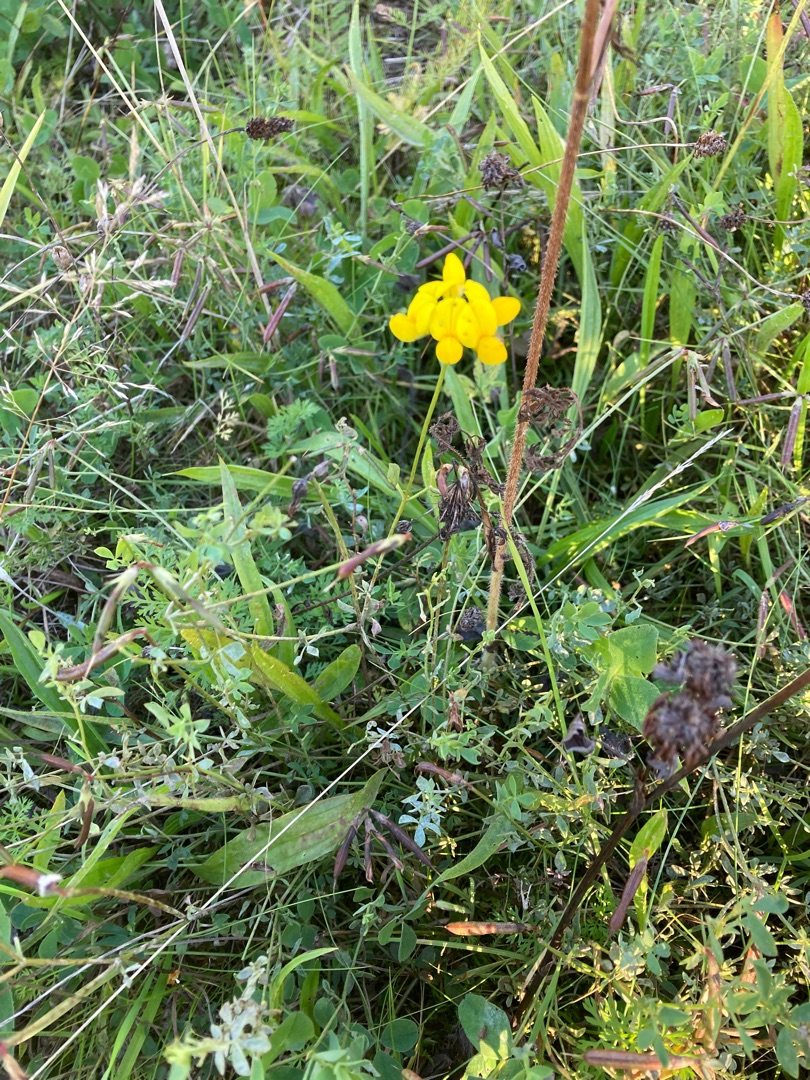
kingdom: Plantae
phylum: Tracheophyta
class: Magnoliopsida
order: Fabales
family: Fabaceae
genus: Lotus
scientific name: Lotus corniculatus
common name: Almindelig kællingetand
